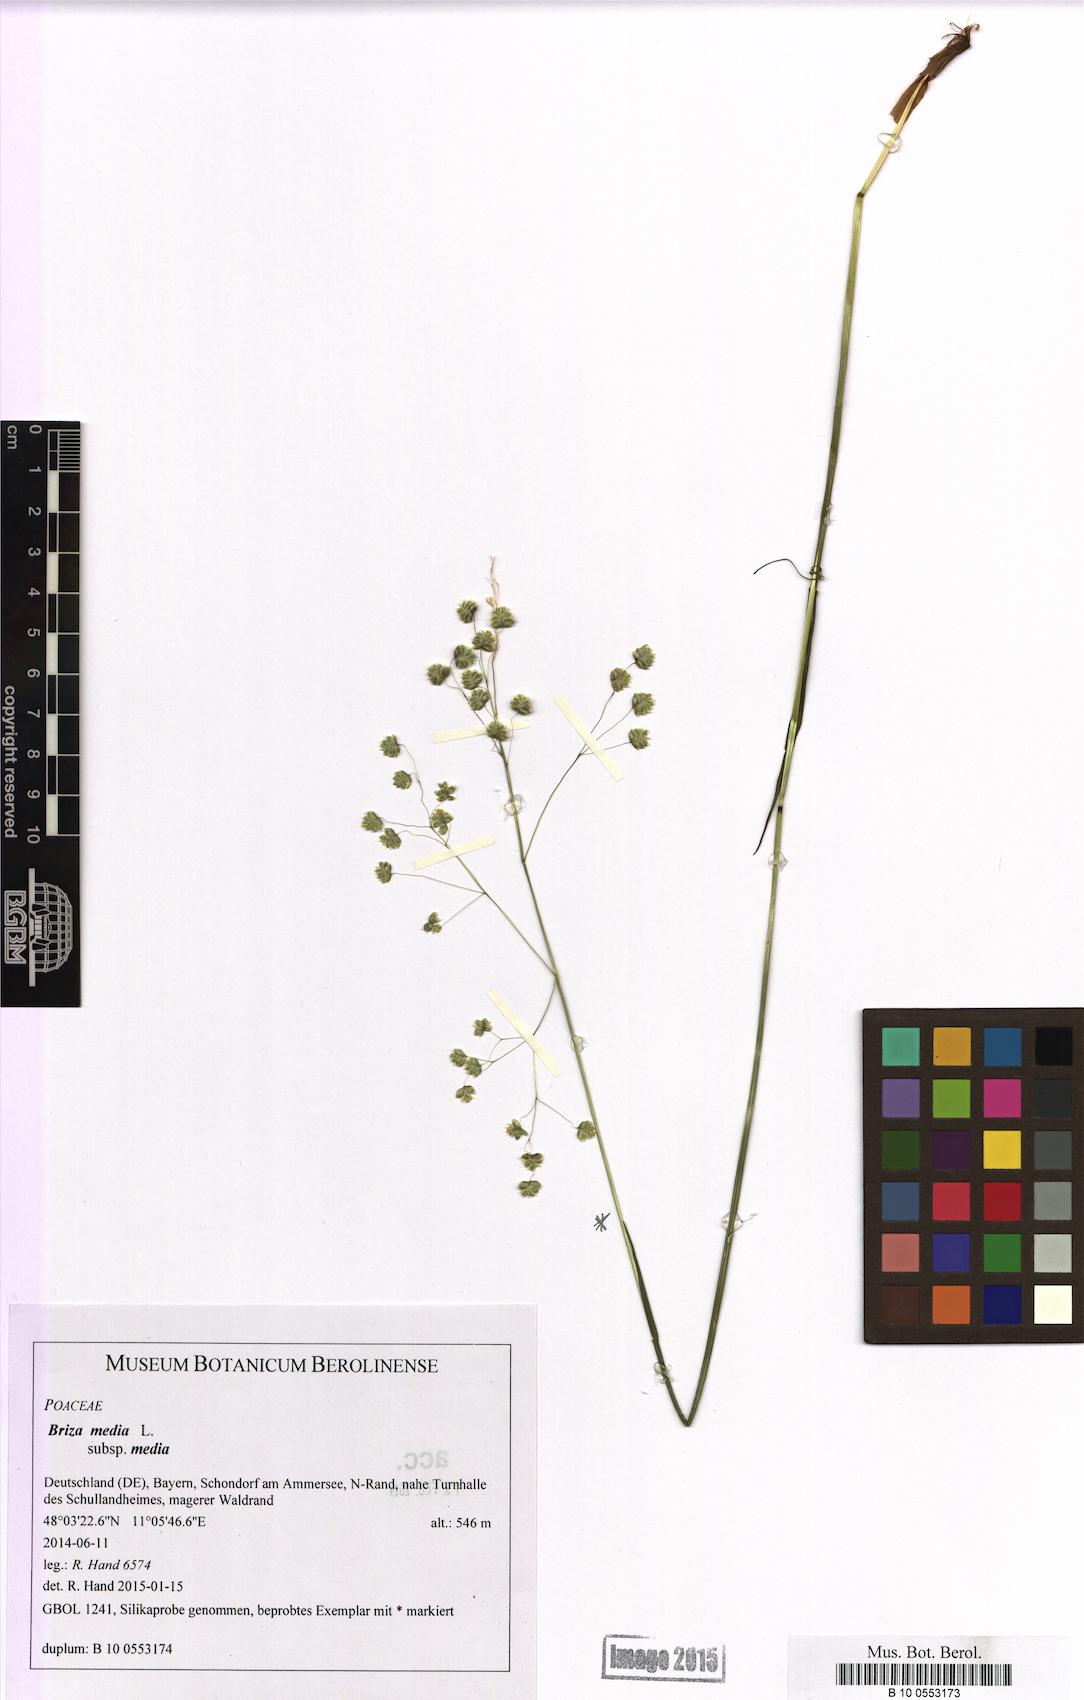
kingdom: Plantae
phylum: Tracheophyta
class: Liliopsida
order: Poales
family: Poaceae
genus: Briza
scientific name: Briza media
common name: Quaking grass
